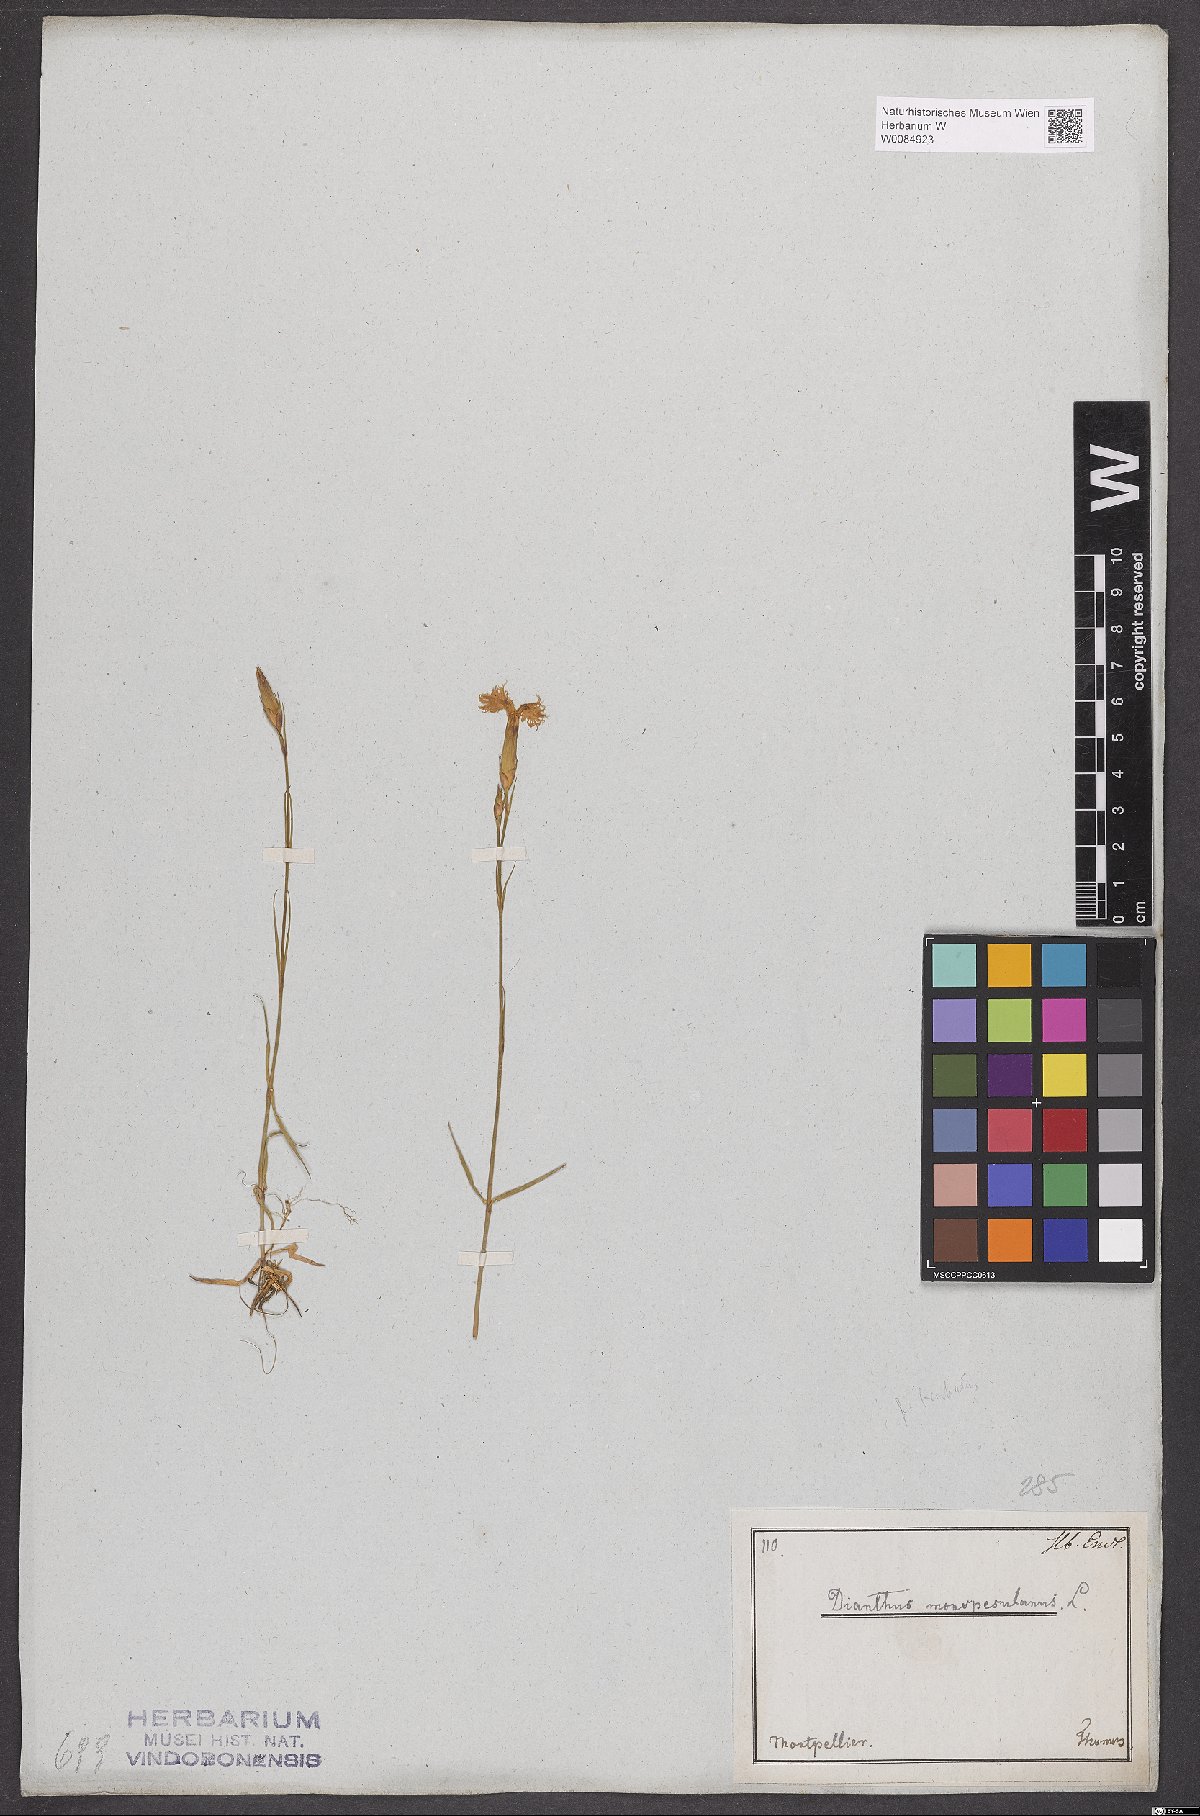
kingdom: Plantae
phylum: Tracheophyta
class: Magnoliopsida
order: Caryophyllales
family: Caryophyllaceae
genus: Dianthus
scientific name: Dianthus hyssopifolius
